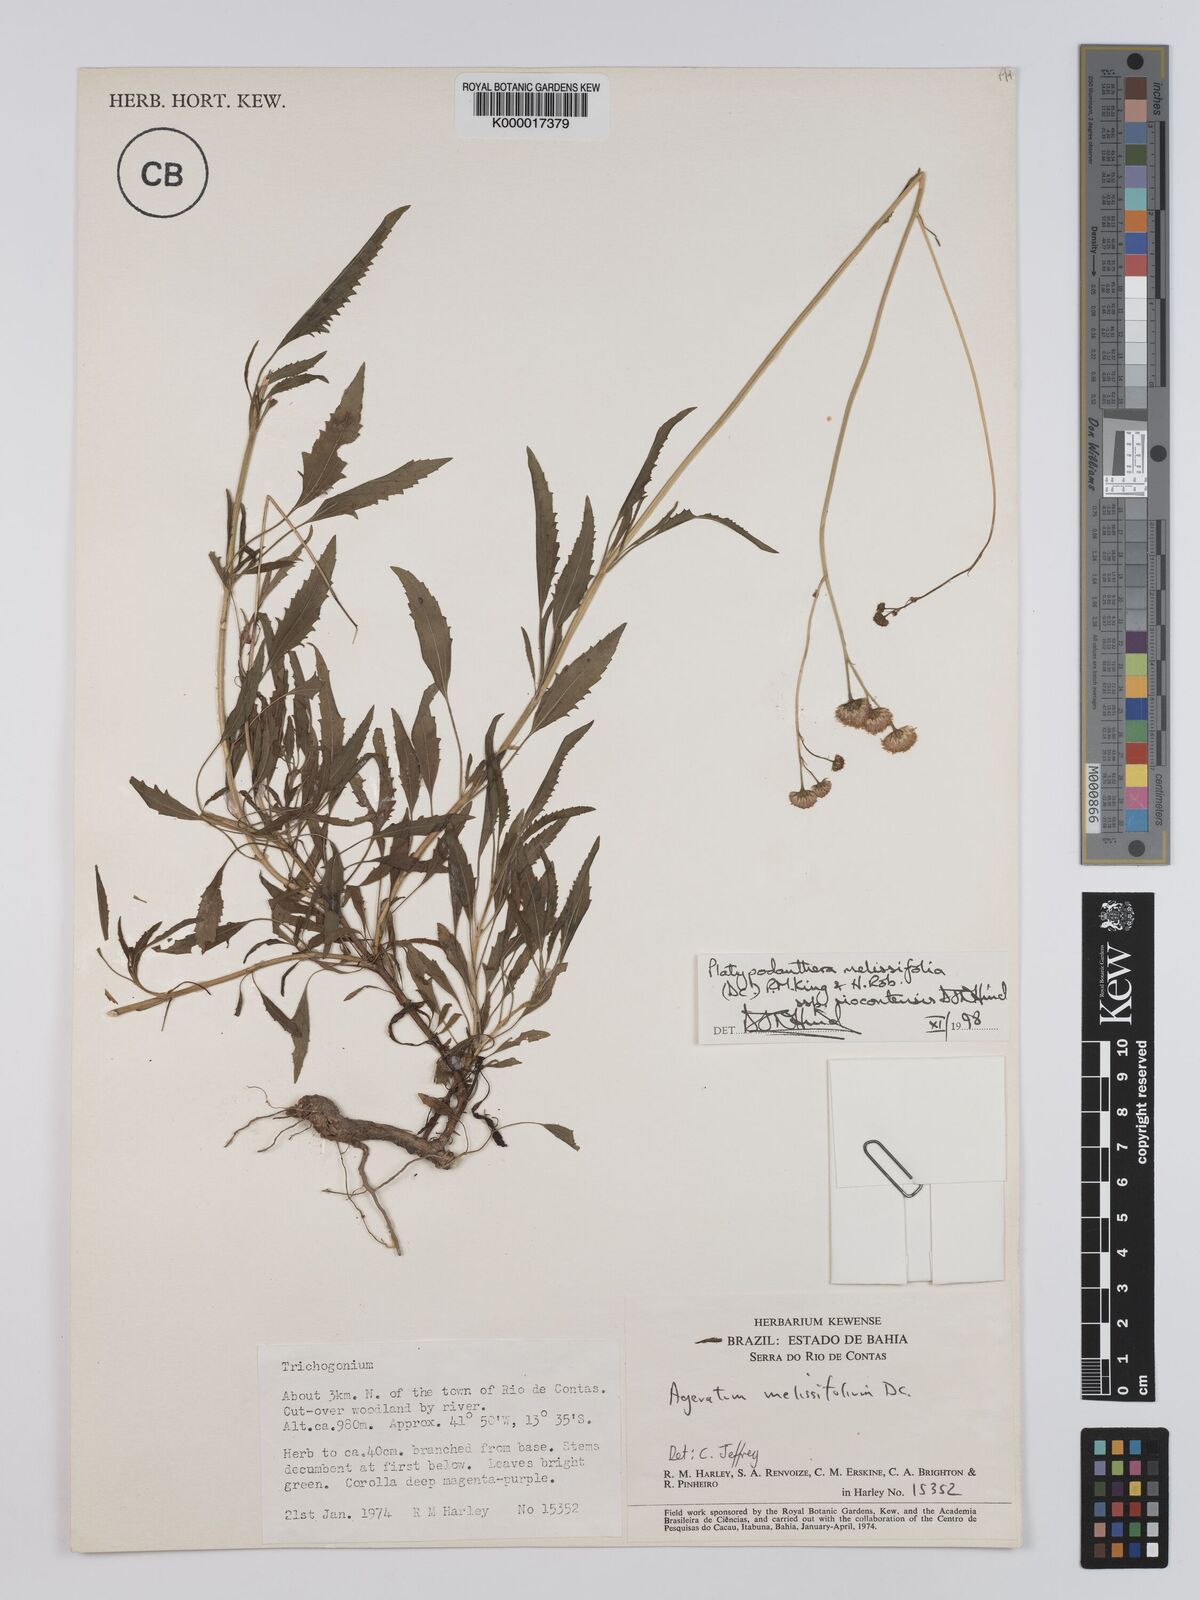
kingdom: Plantae
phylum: Tracheophyta
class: Magnoliopsida
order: Asterales
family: Asteraceae
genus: Platypodanthera
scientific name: Platypodanthera melissifolia
